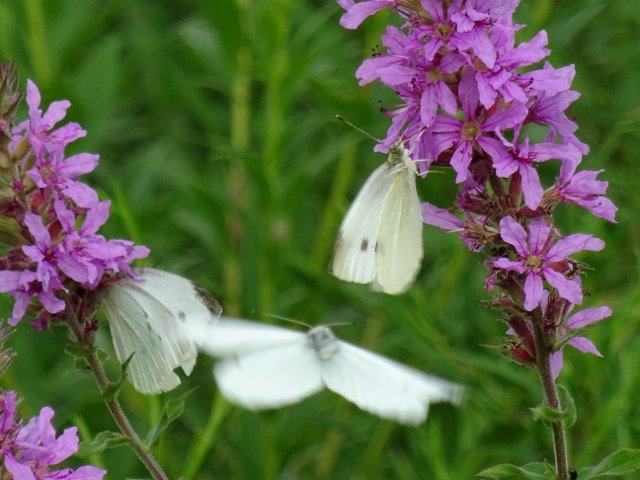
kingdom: Animalia
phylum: Arthropoda
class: Insecta
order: Lepidoptera
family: Pieridae
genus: Pieris
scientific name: Pieris rapae
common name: Cabbage White
